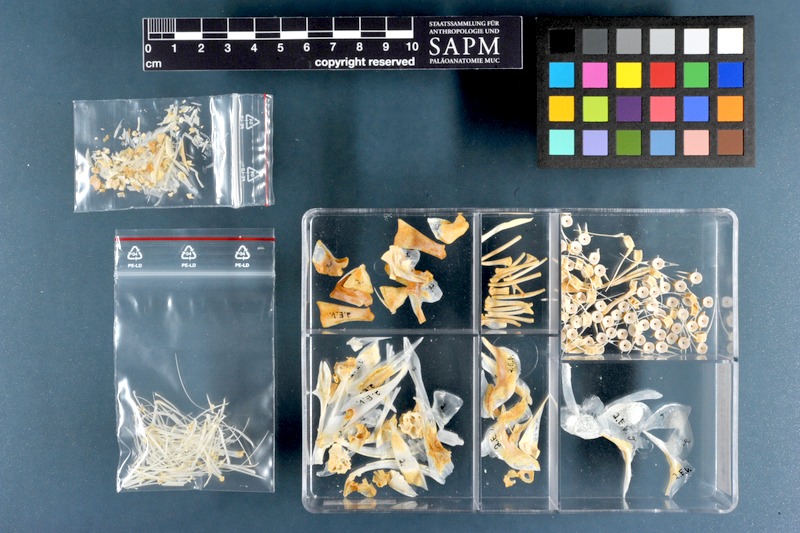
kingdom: Animalia
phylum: Chordata
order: Elopiformes
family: Elopidae
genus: Elops
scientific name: Elops lacerta
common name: Atlantic ladyfish
